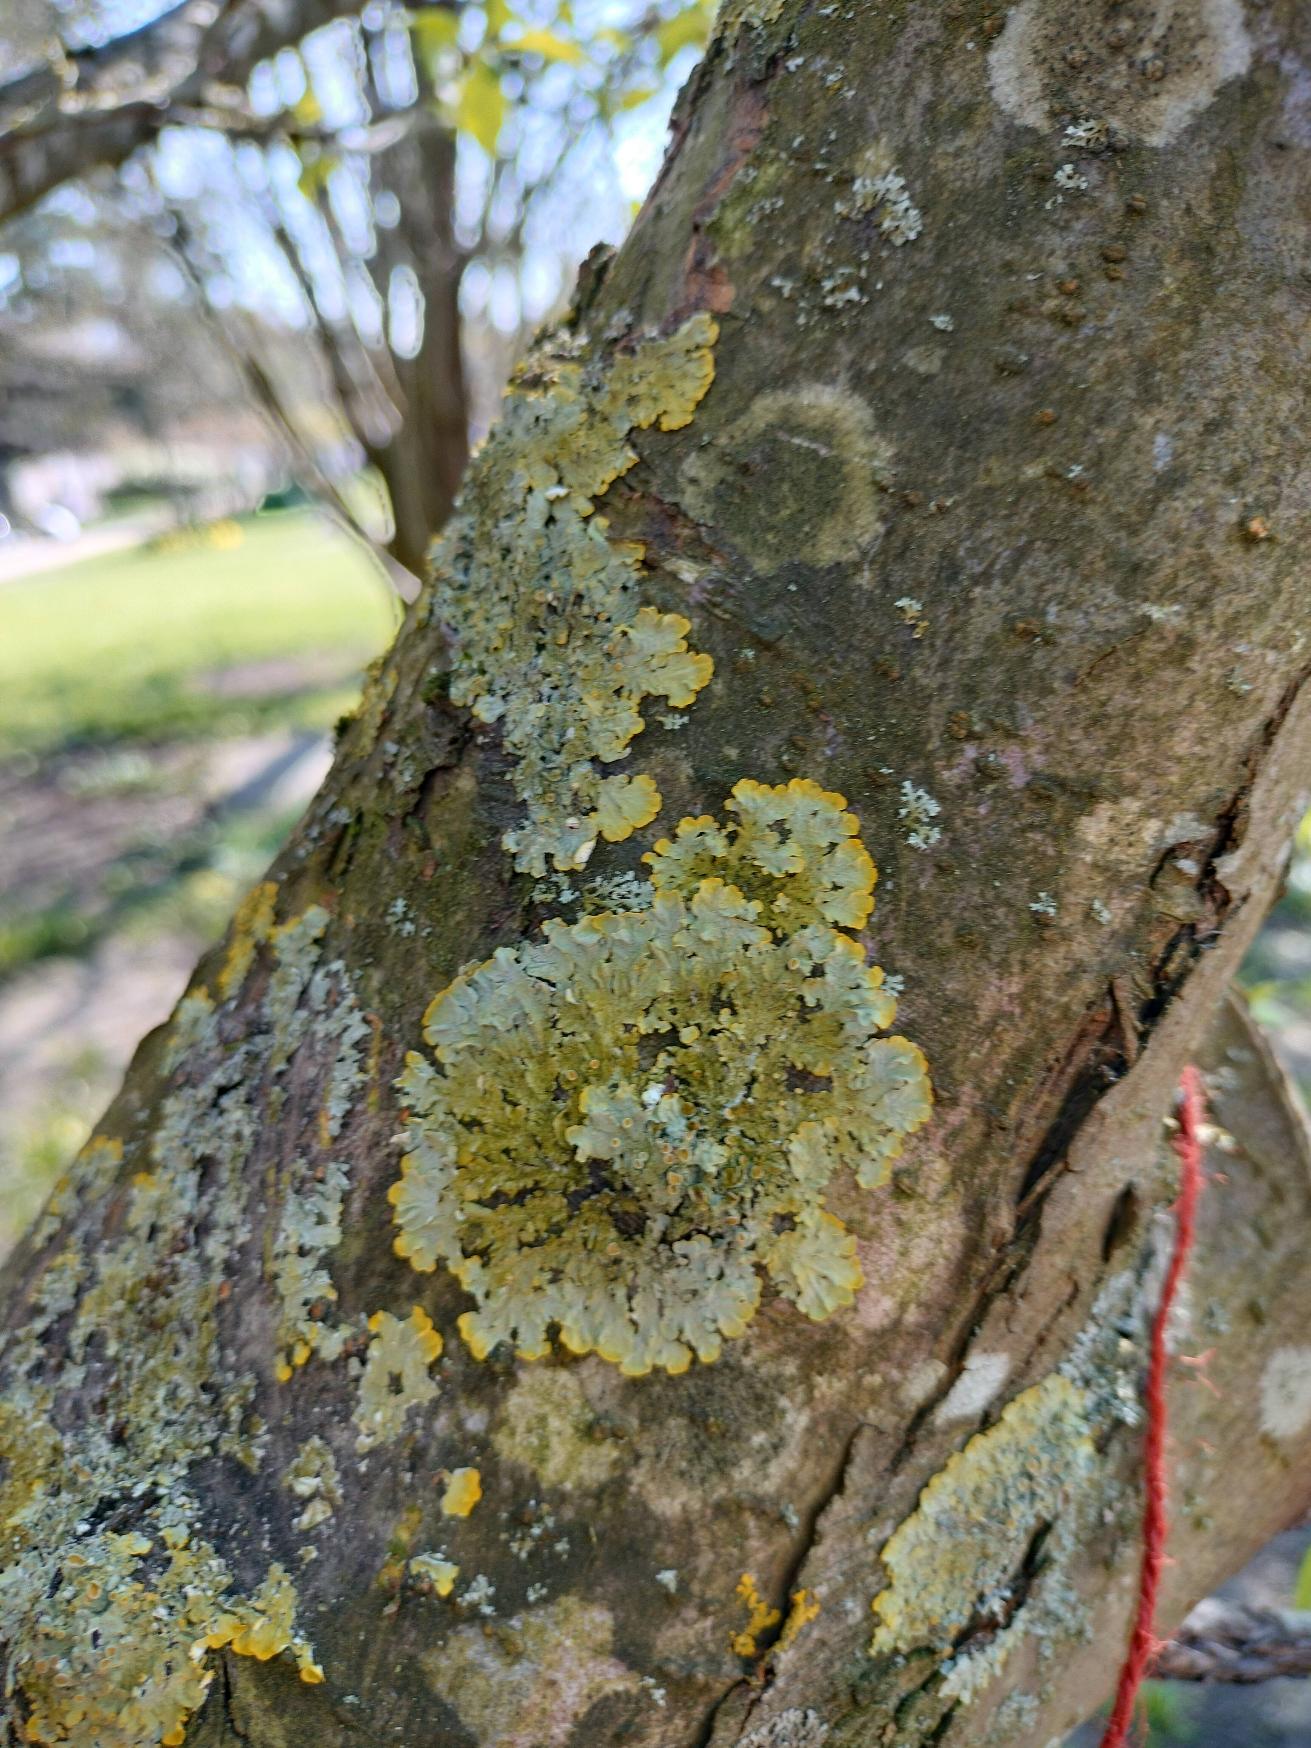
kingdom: Fungi
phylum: Ascomycota
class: Lecanoromycetes
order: Teloschistales
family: Teloschistaceae
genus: Xanthoria
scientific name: Xanthoria parietina
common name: Almindelig væggelav
